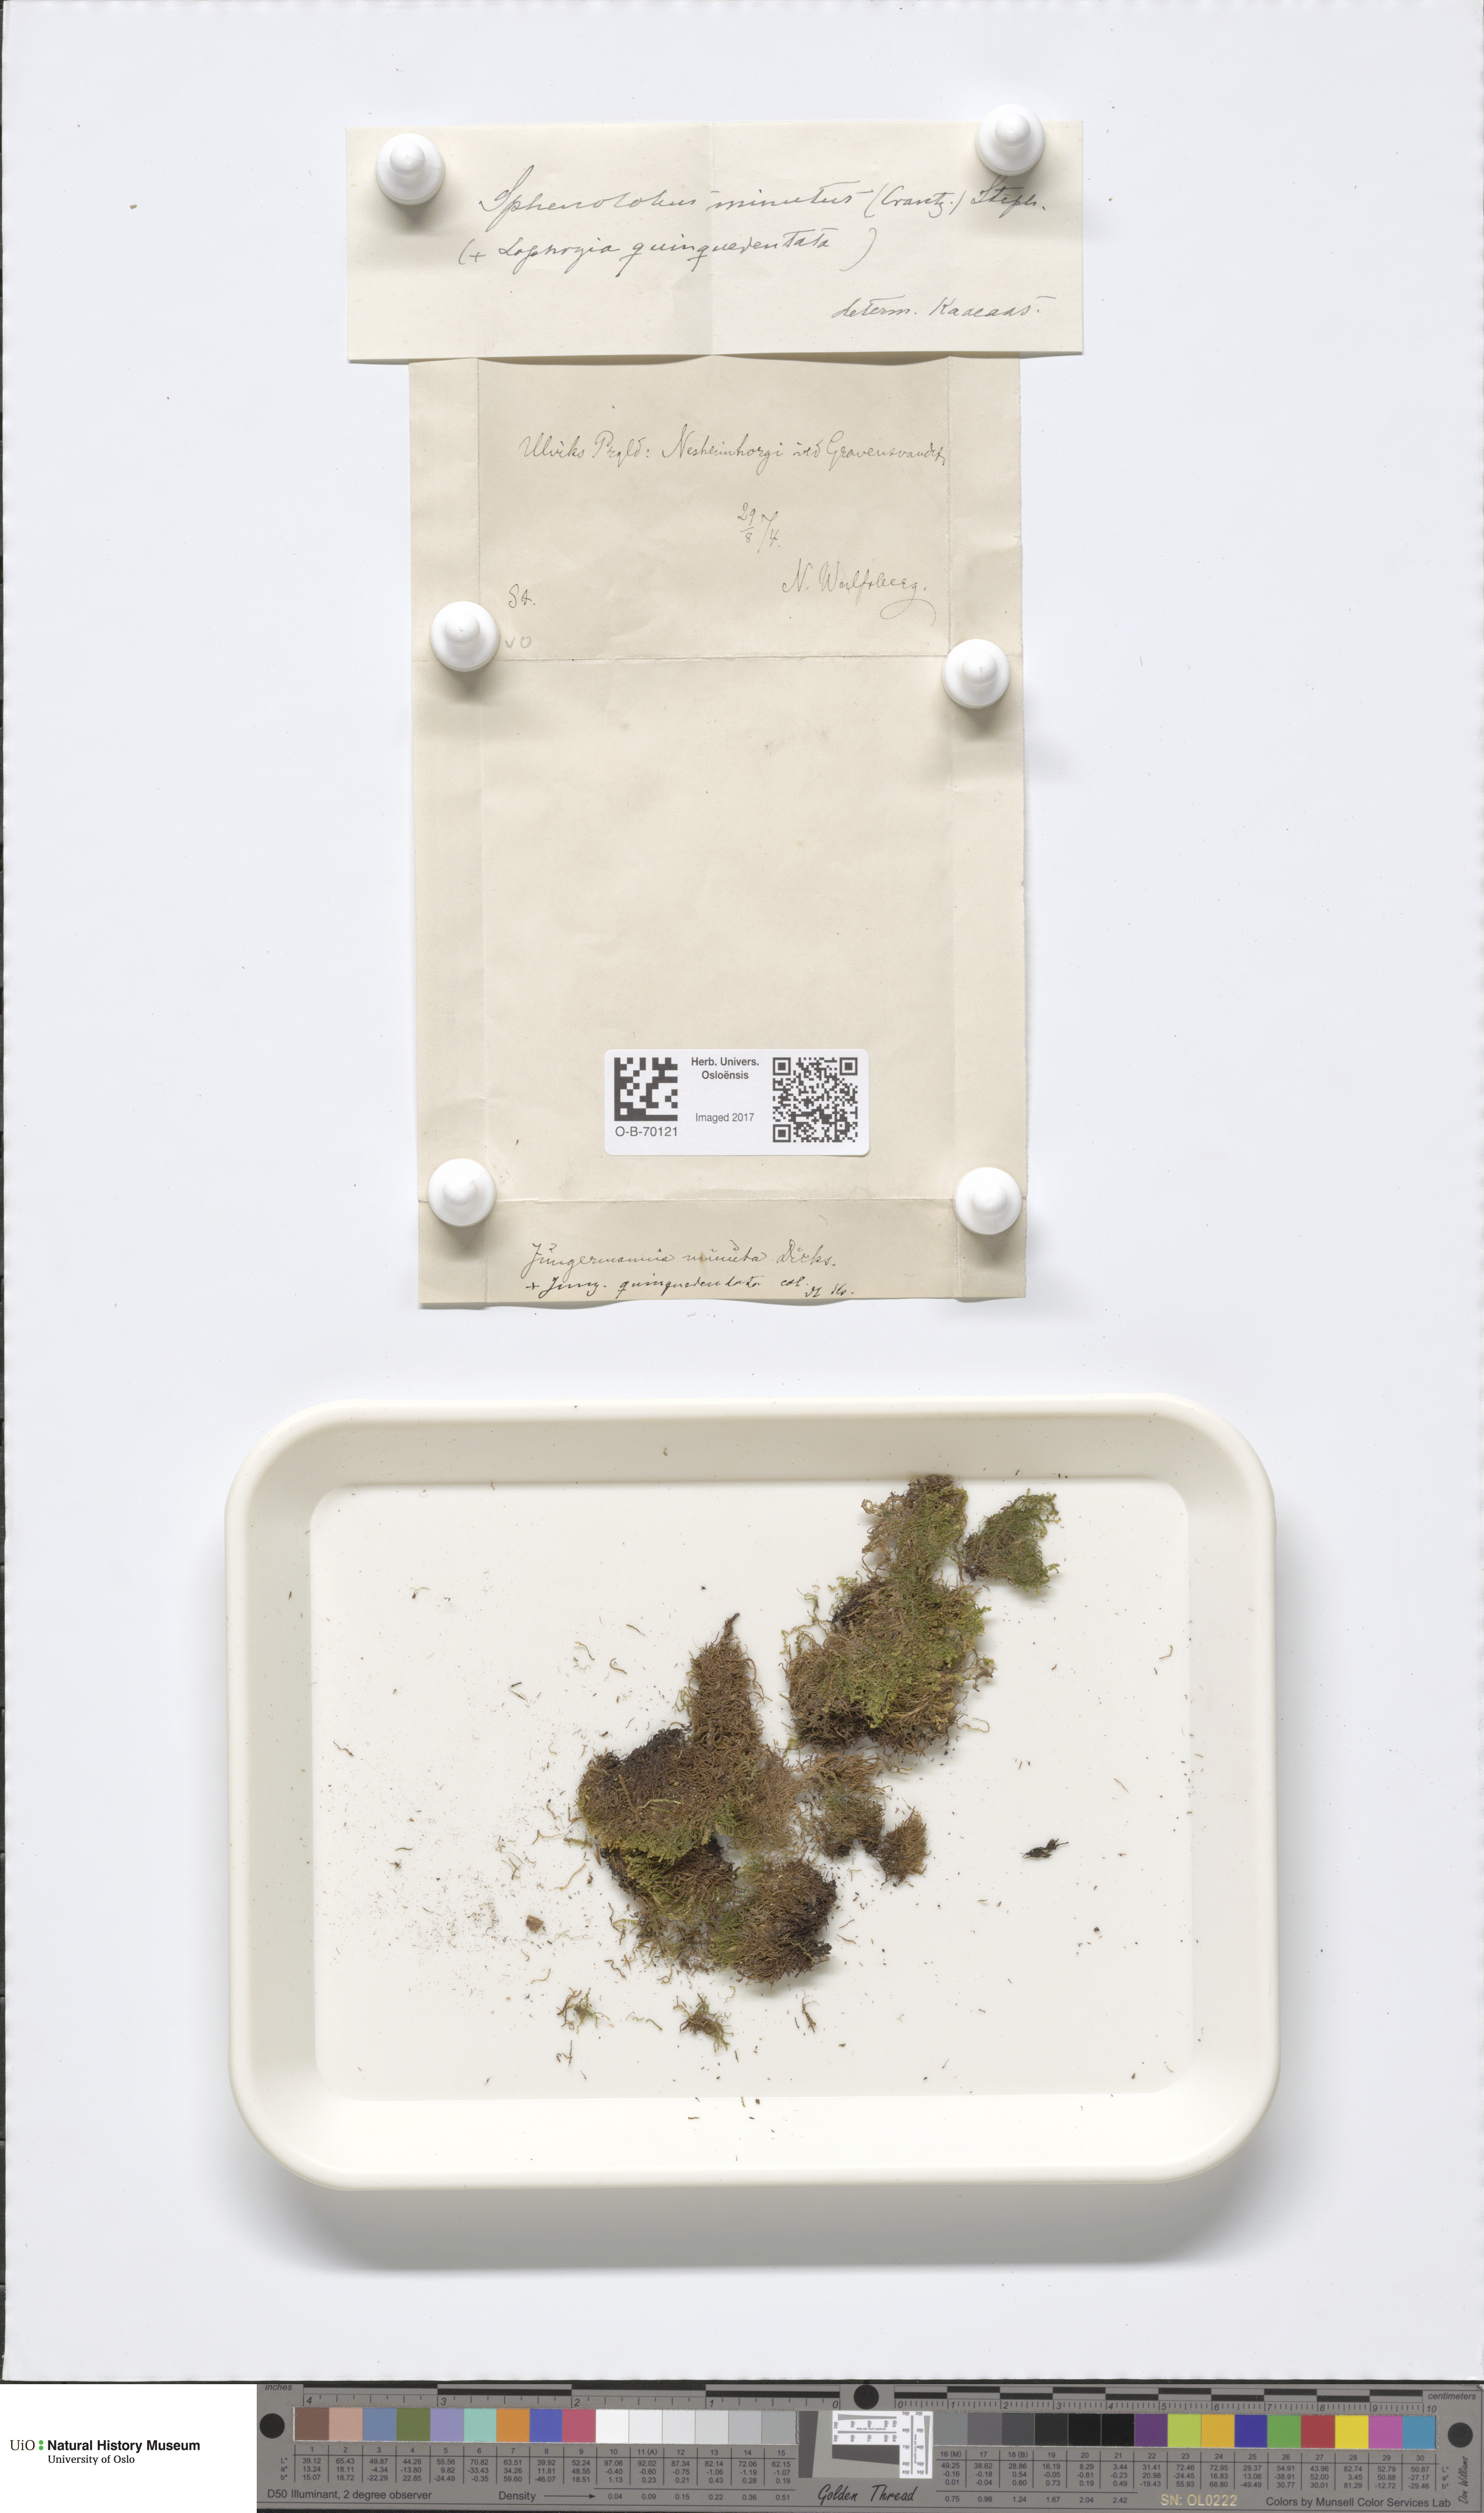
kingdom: Plantae
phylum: Marchantiophyta
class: Jungermanniopsida
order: Jungermanniales
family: Anastrophyllaceae
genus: Sphenolobus
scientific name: Sphenolobus minutus
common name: Comb notchwort
